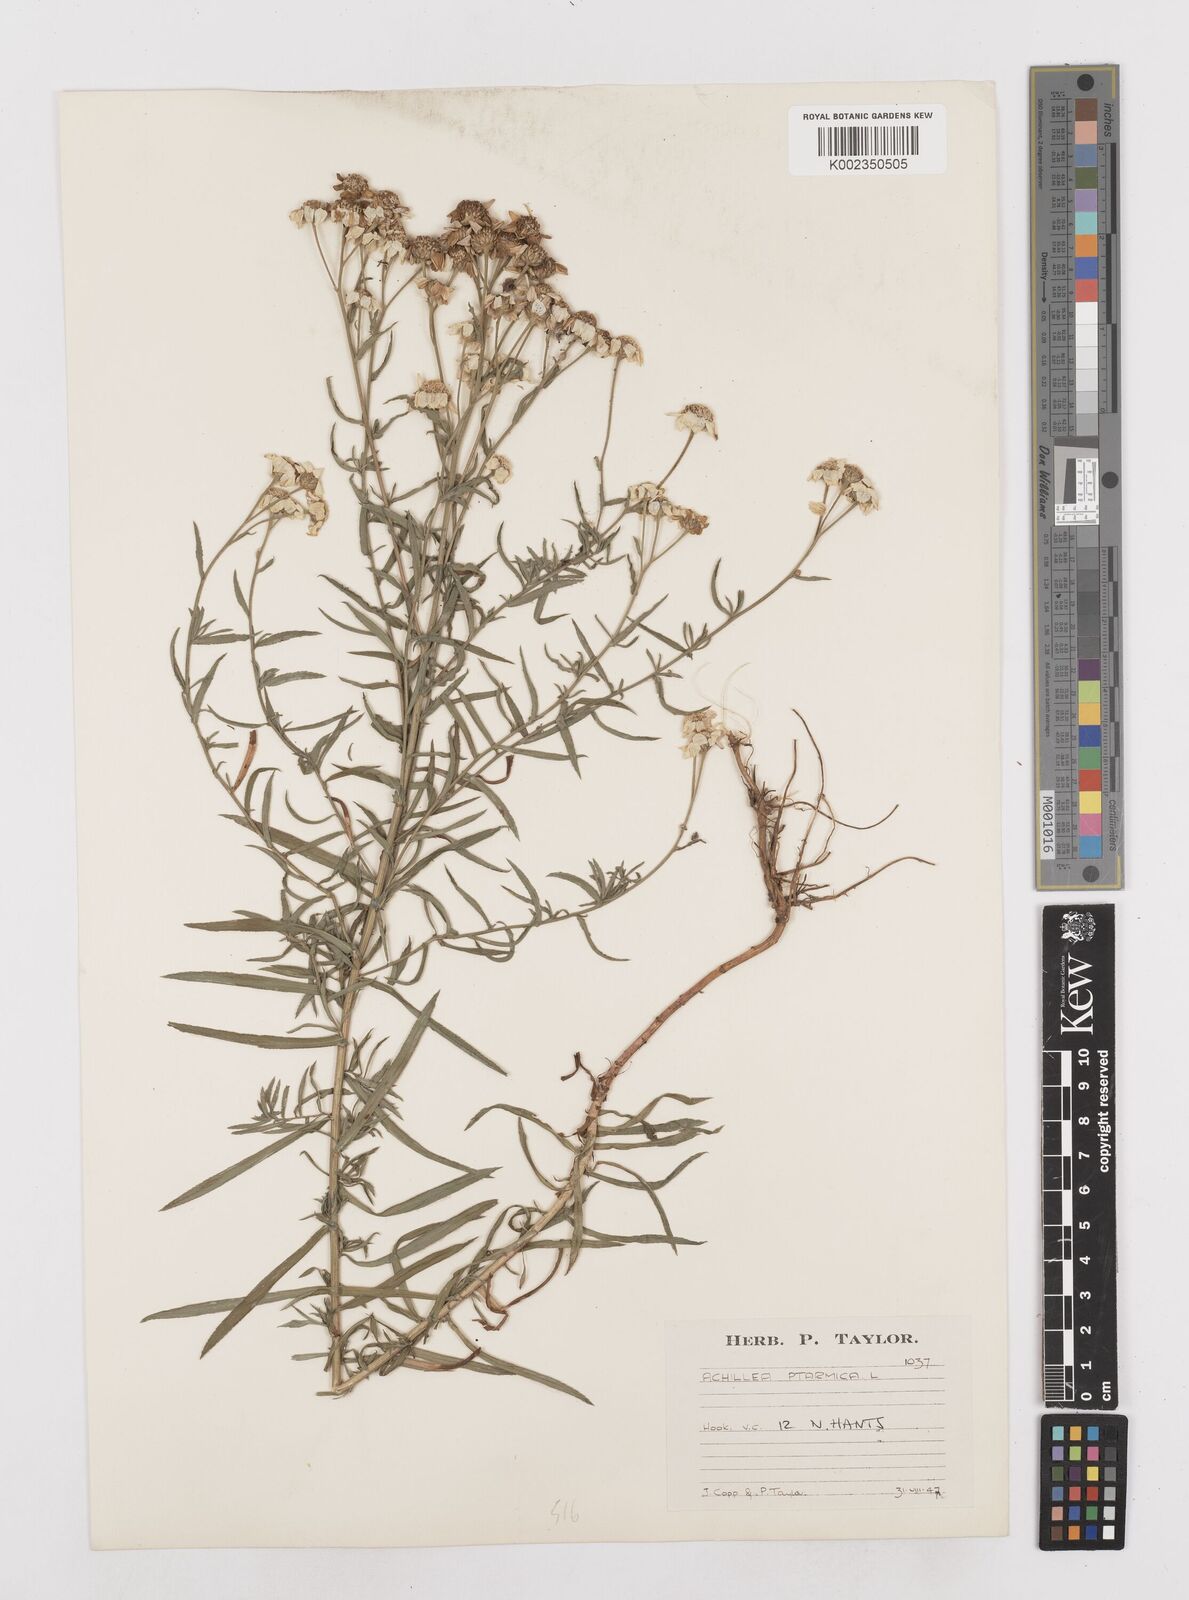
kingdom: Plantae
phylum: Tracheophyta
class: Magnoliopsida
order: Asterales
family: Asteraceae
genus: Achillea
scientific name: Achillea ptarmica
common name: Sneezeweed
